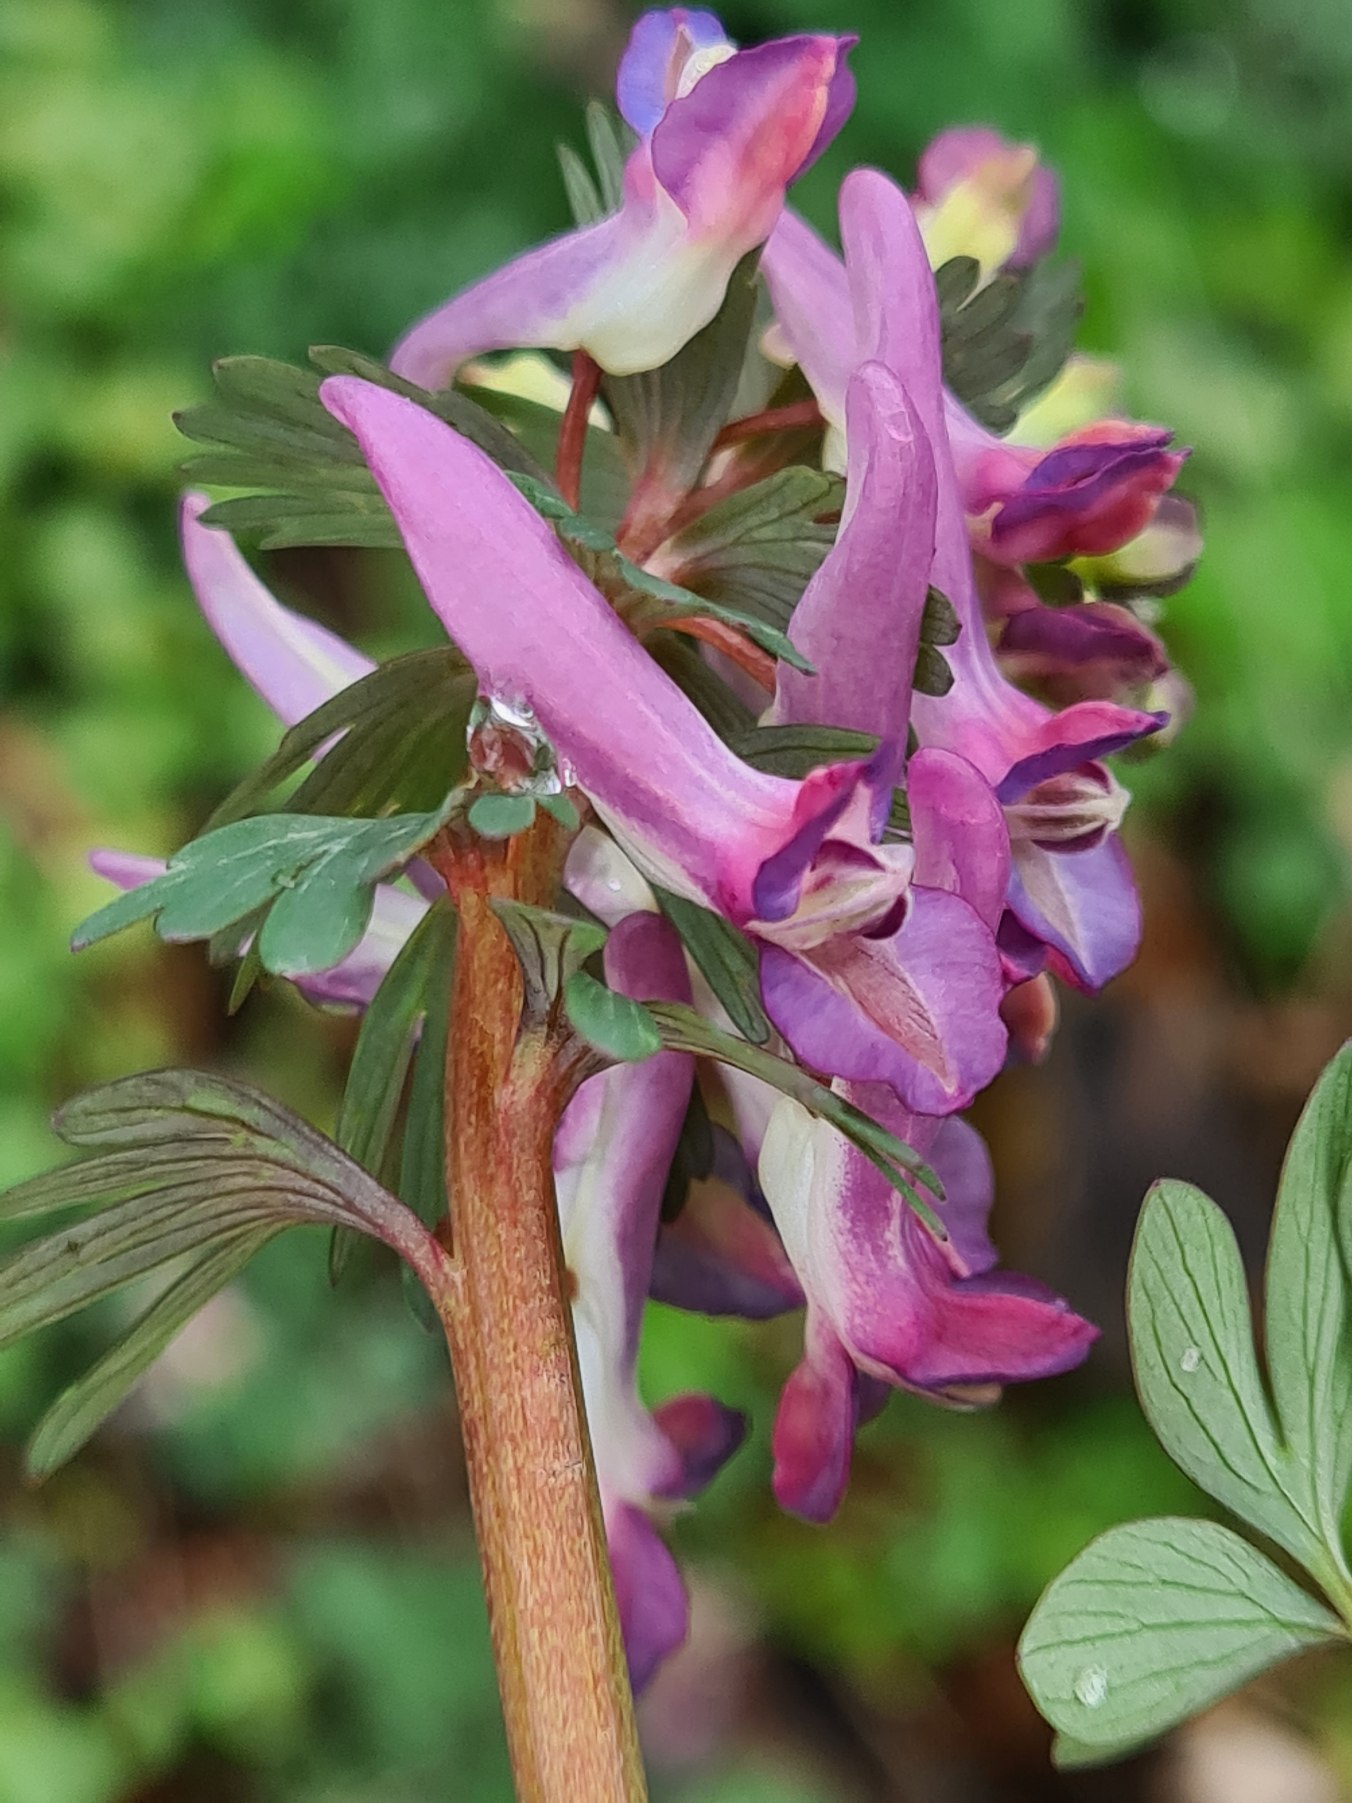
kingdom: Plantae
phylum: Tracheophyta
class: Magnoliopsida
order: Ranunculales
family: Papaveraceae
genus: Corydalis
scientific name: Corydalis solida
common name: Langstilket lærkespore
